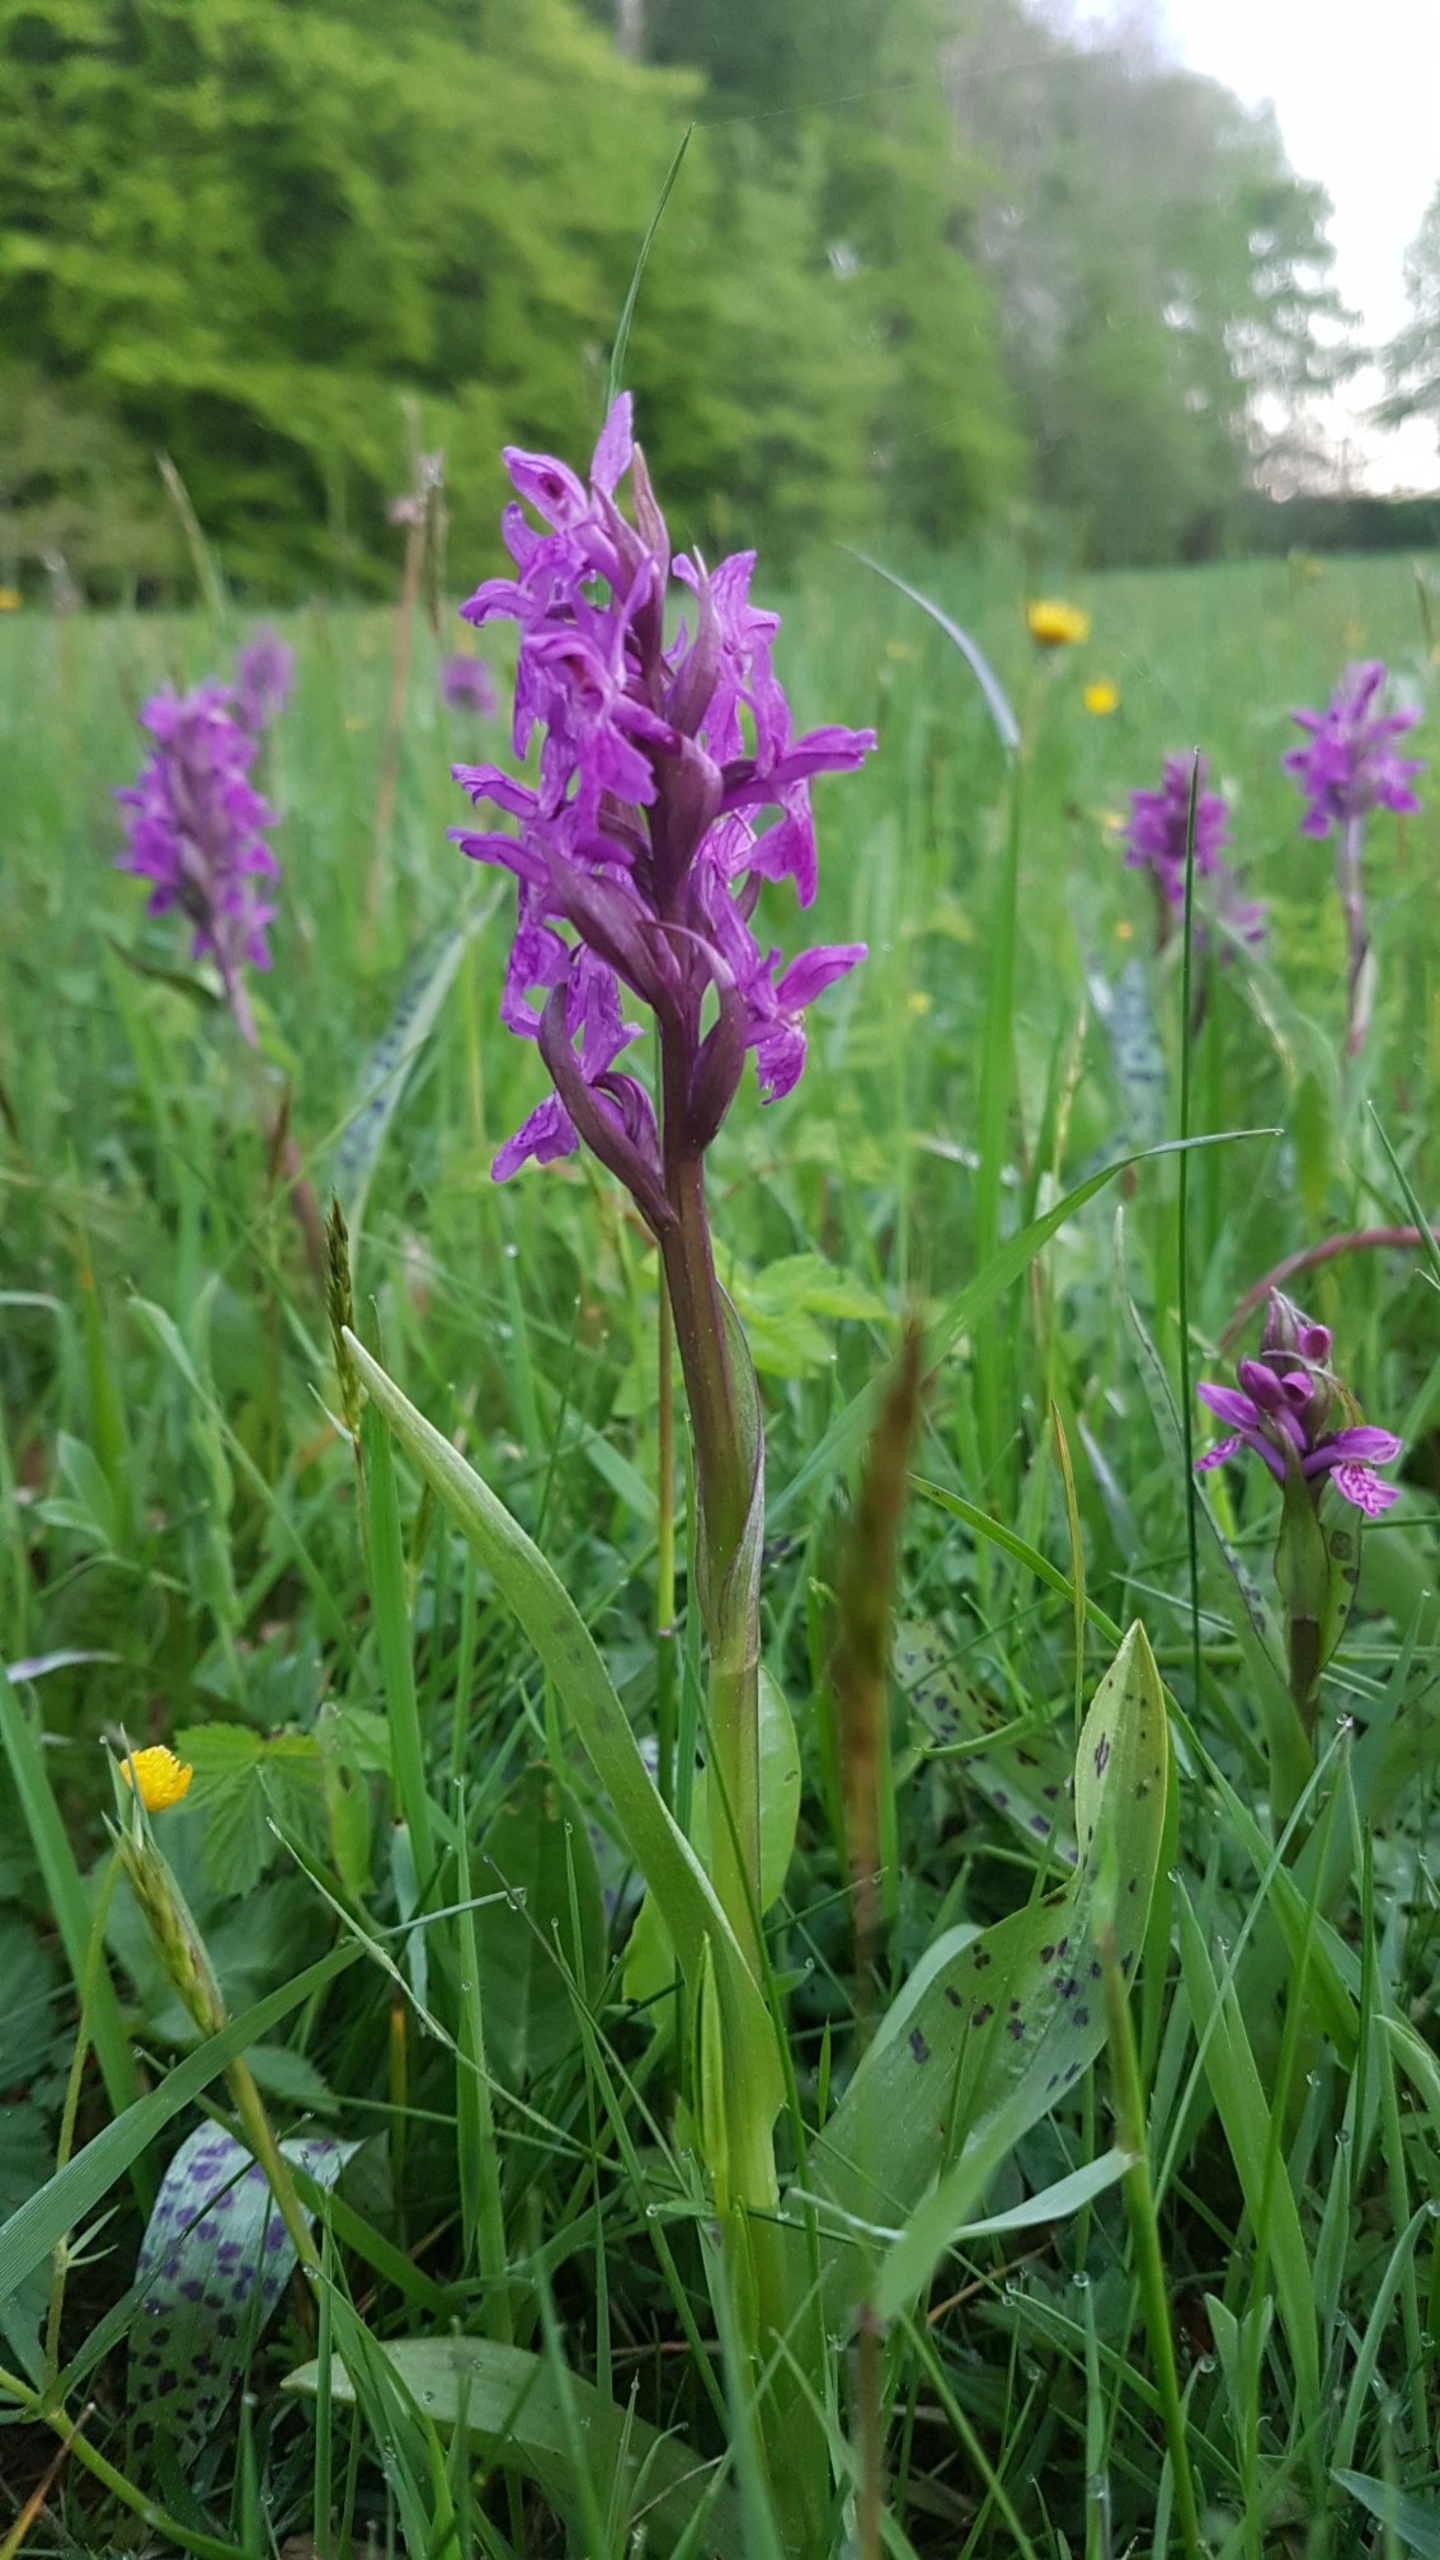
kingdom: Plantae
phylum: Tracheophyta
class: Liliopsida
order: Asparagales
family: Orchidaceae
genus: Dactylorhiza
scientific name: Dactylorhiza majalis
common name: Maj-gøgeurt
